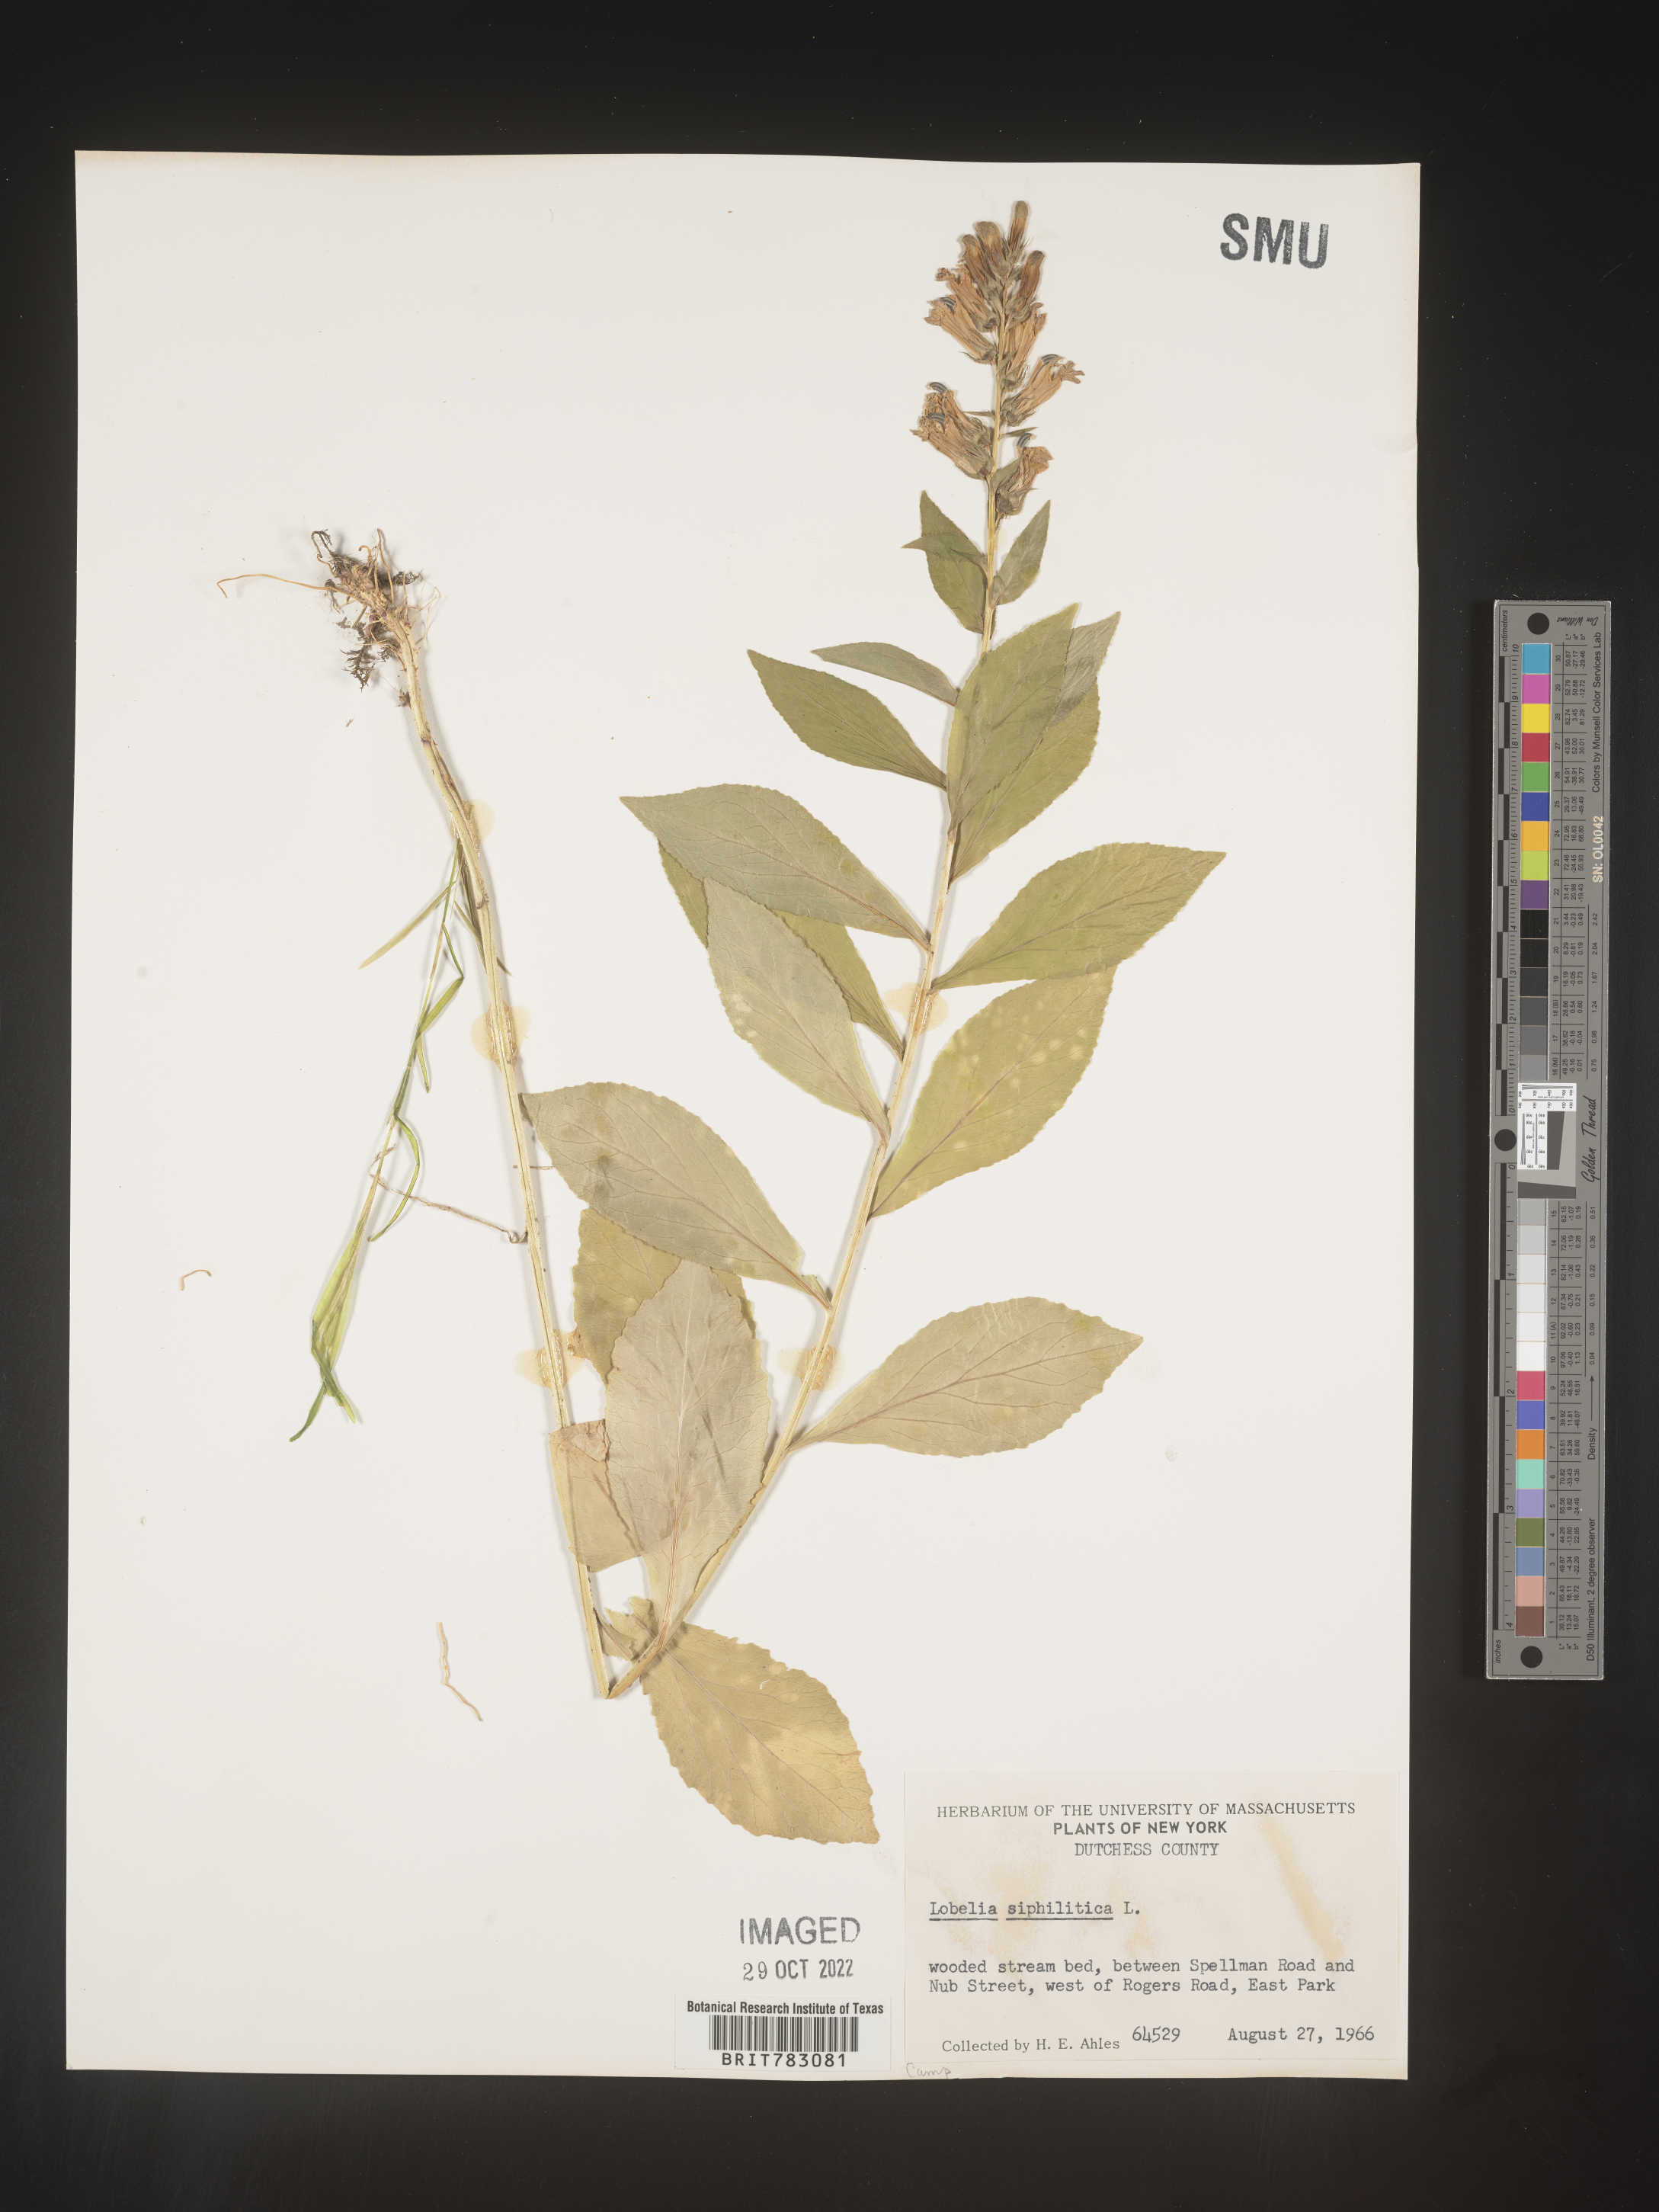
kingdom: Plantae
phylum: Tracheophyta
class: Magnoliopsida
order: Asterales
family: Campanulaceae
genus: Lobelia
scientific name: Lobelia siphilitica
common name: Great lobelia
